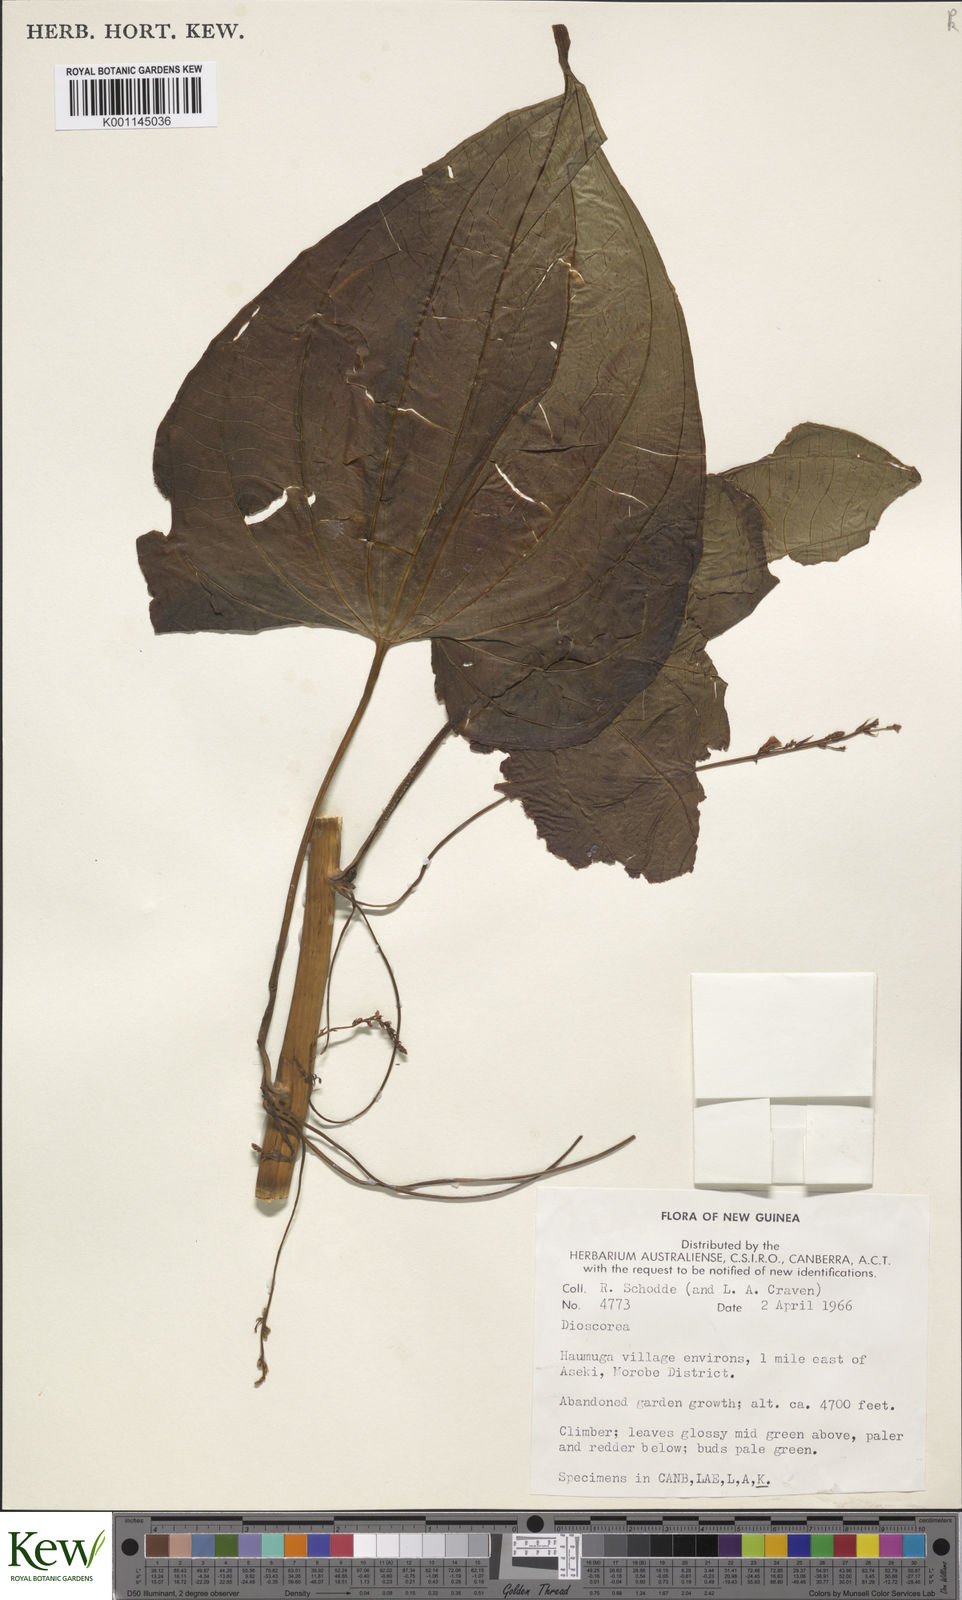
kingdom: Plantae
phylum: Tracheophyta
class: Liliopsida
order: Dioscoreales
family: Dioscoreaceae
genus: Dioscorea
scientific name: Dioscorea
